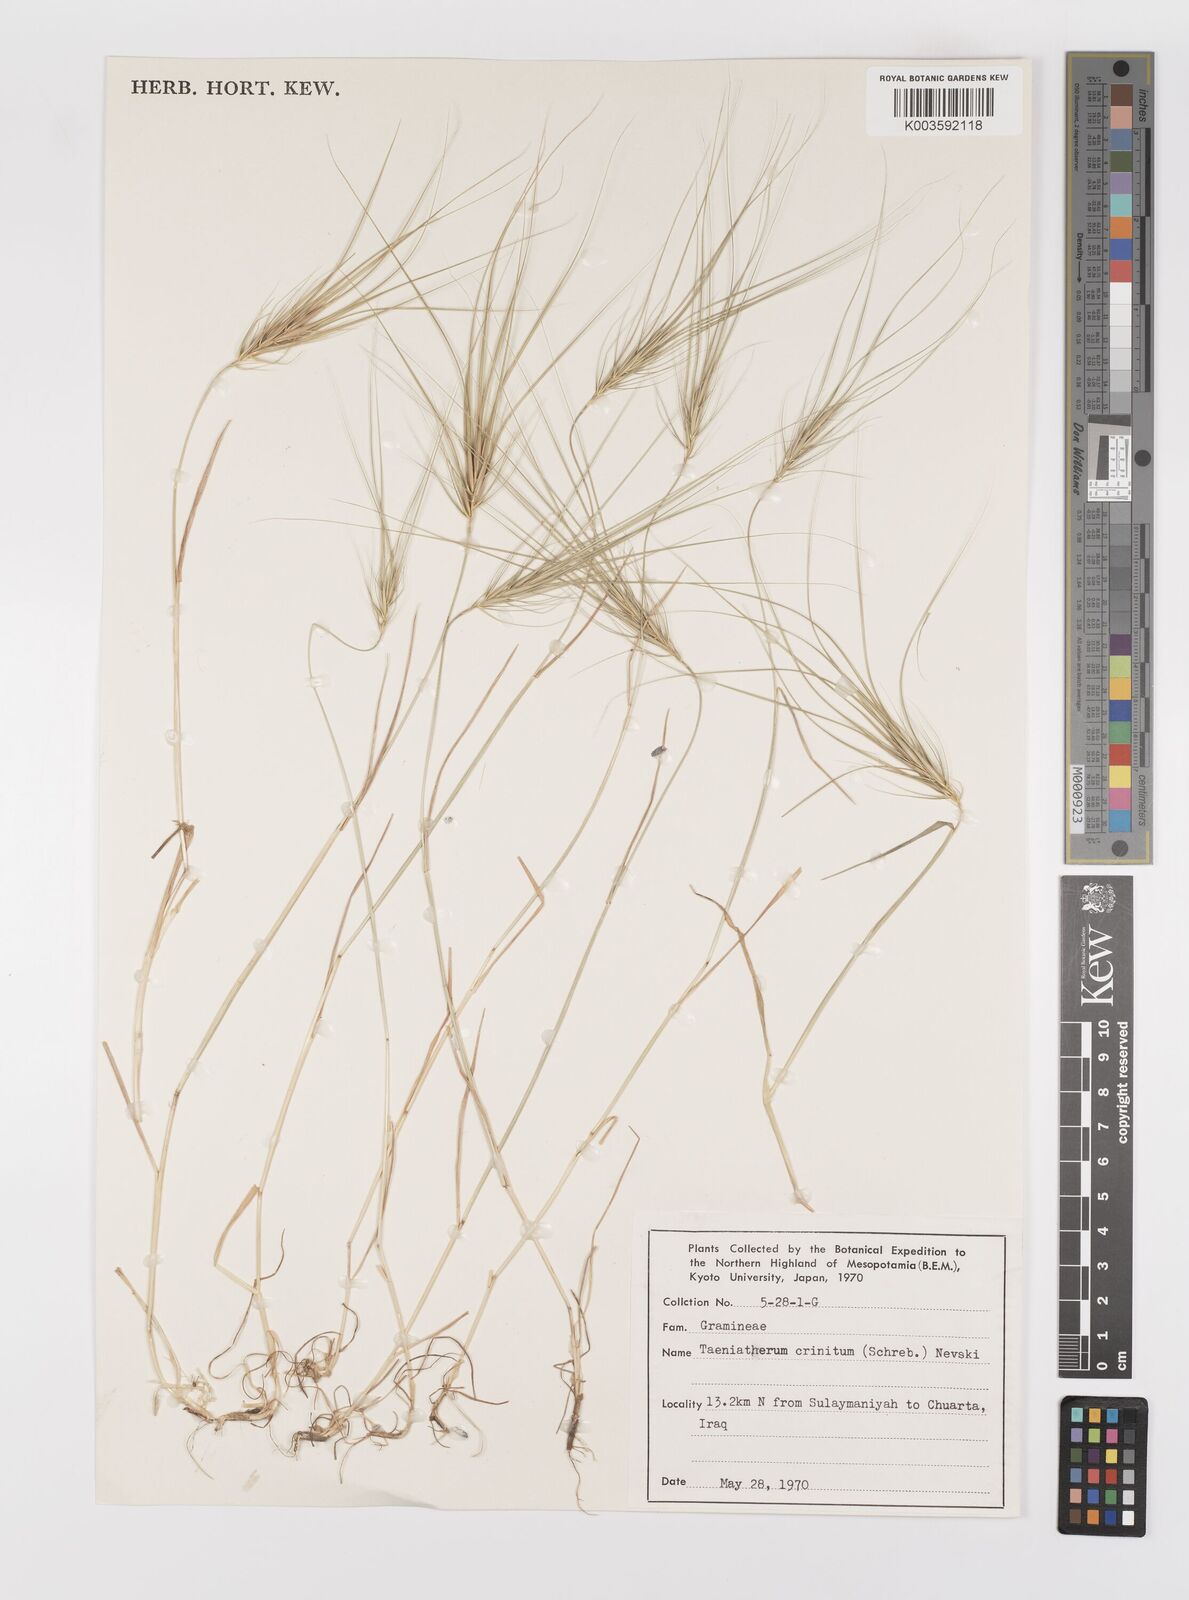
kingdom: Plantae
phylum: Tracheophyta
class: Liliopsida
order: Poales
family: Poaceae
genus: Taeniatherum
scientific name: Taeniatherum caput-medusae
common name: Medusahead
